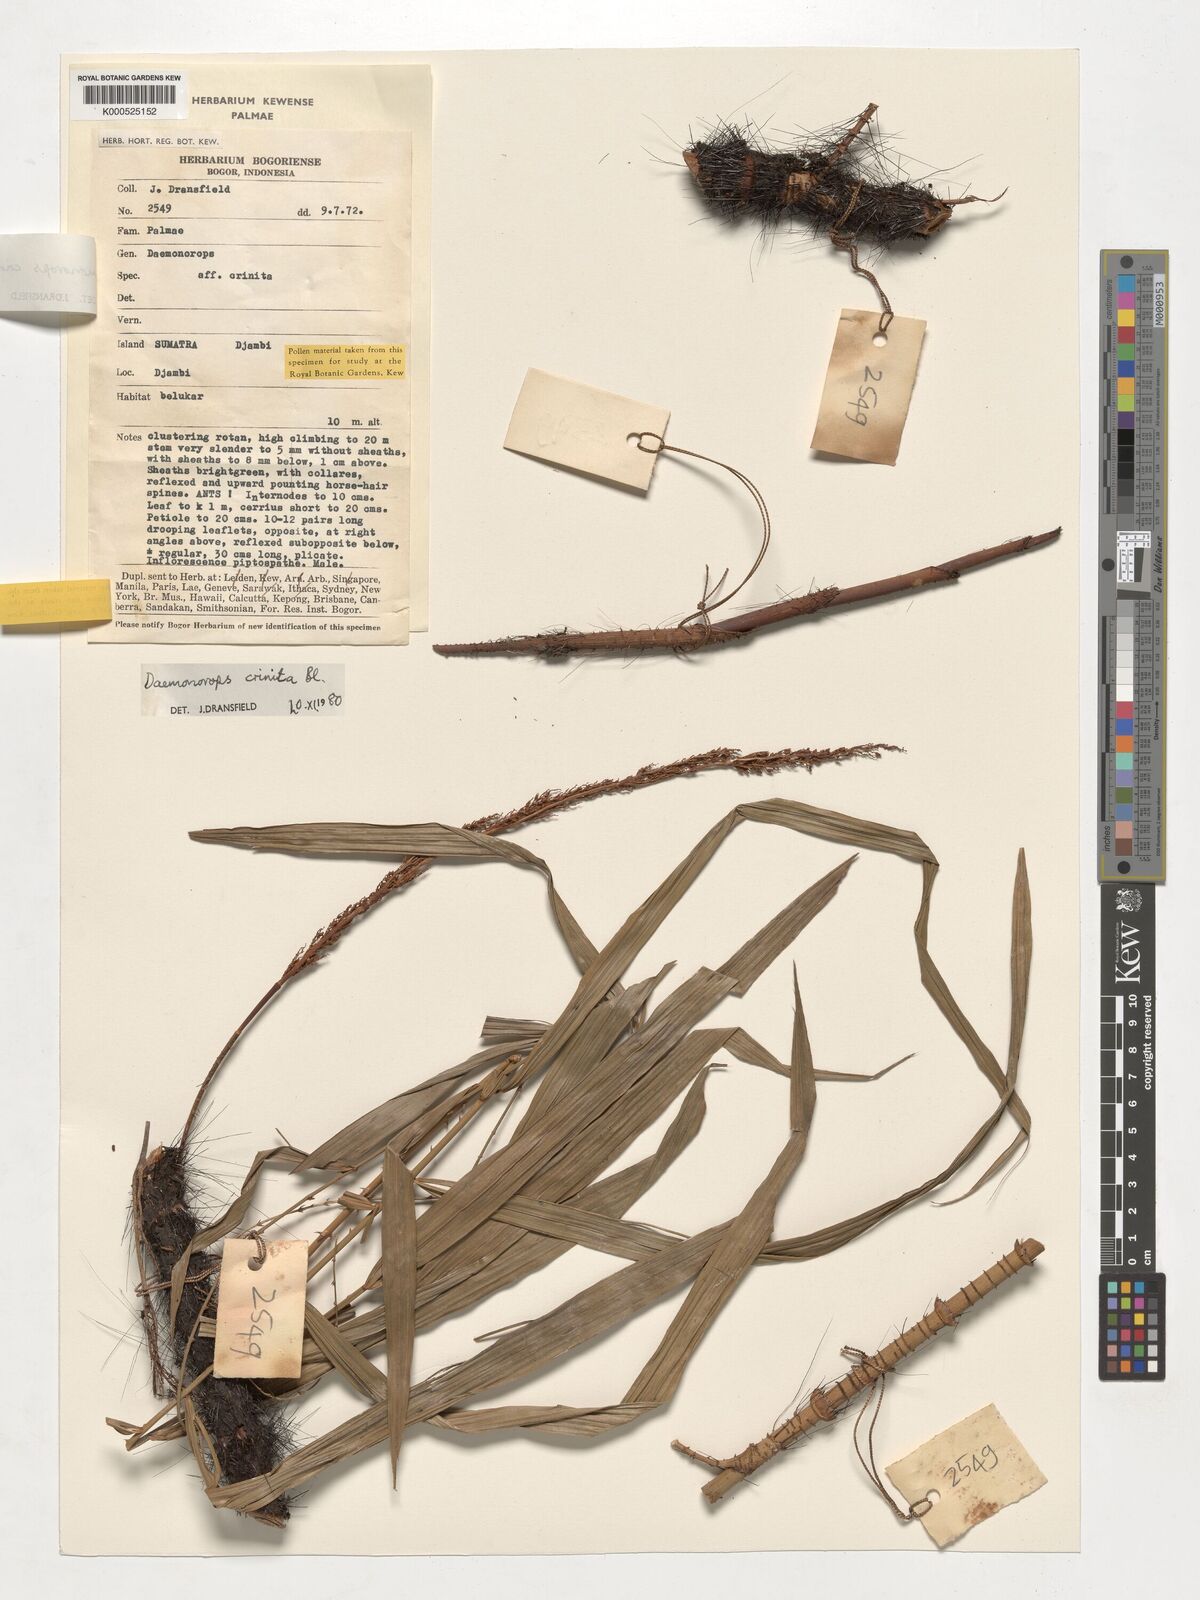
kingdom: Plantae
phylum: Tracheophyta
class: Liliopsida
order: Arecales
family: Arecaceae
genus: Calamus
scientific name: Calamus crinitus
